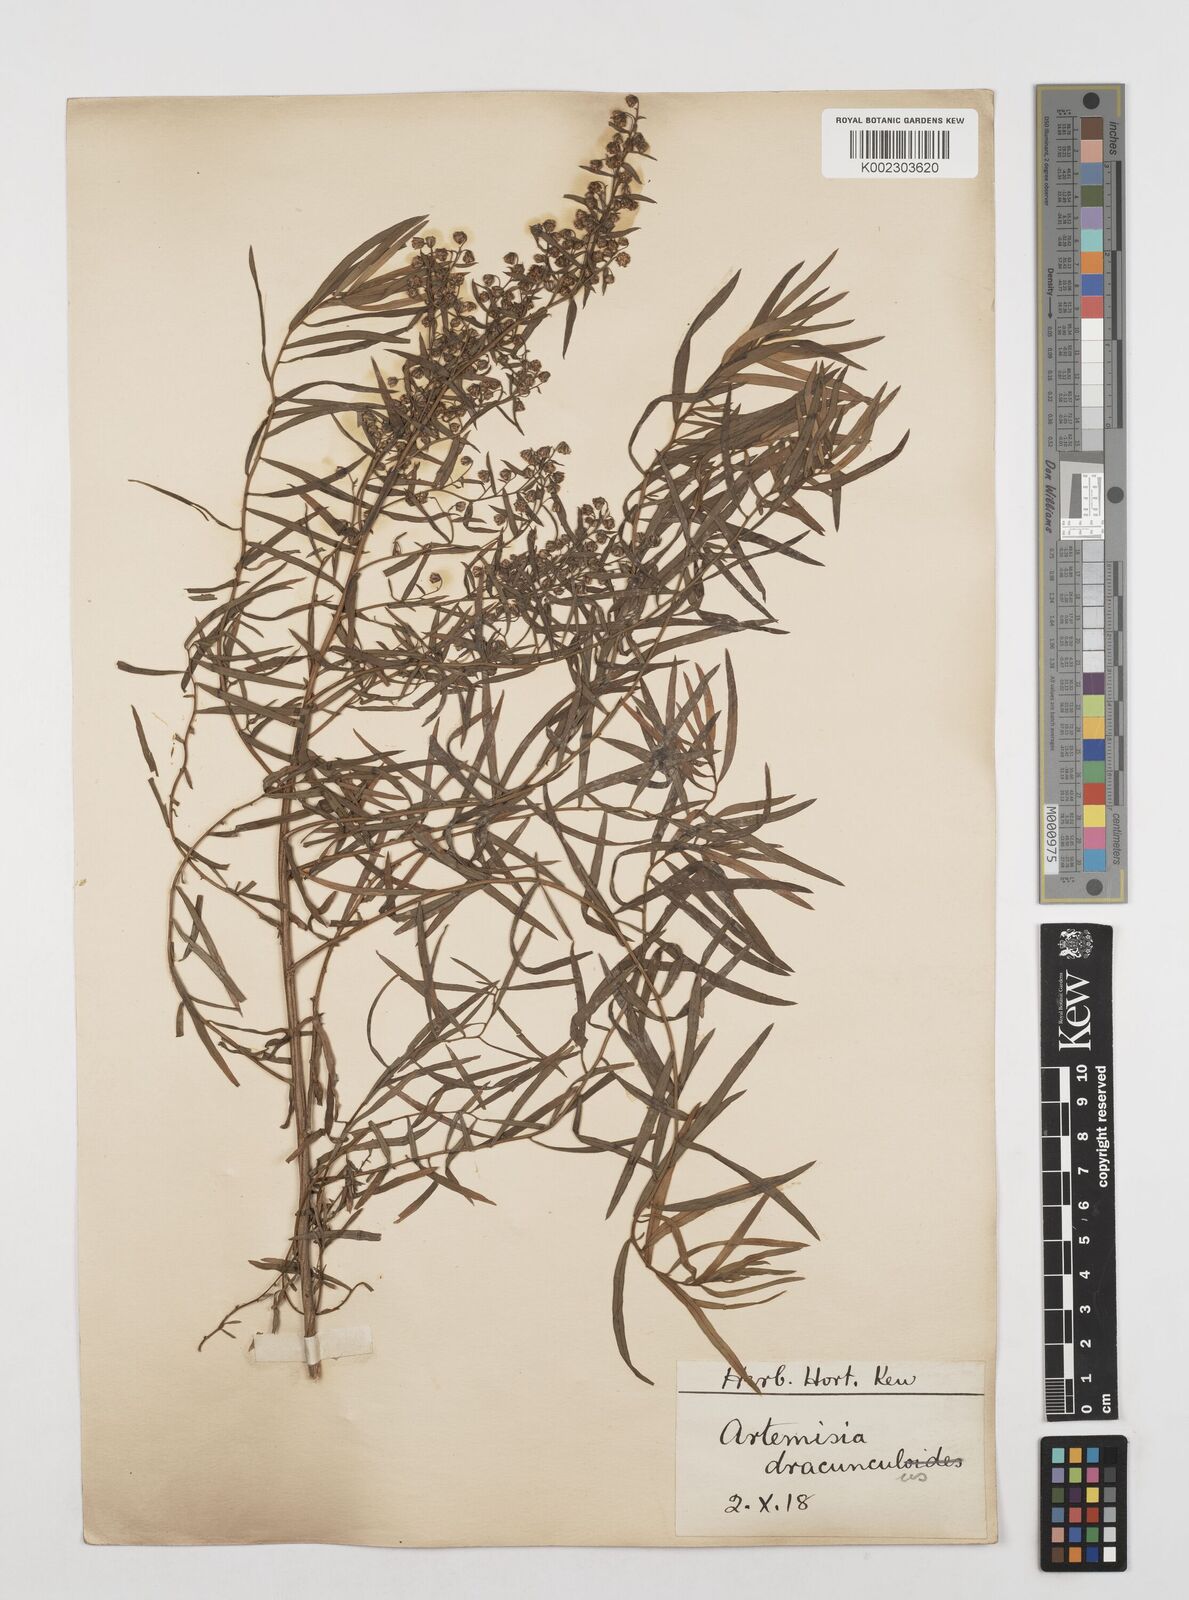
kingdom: Plantae
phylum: Tracheophyta
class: Magnoliopsida
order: Asterales
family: Asteraceae
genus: Artemisia
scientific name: Artemisia dracunculus
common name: Tarragon
